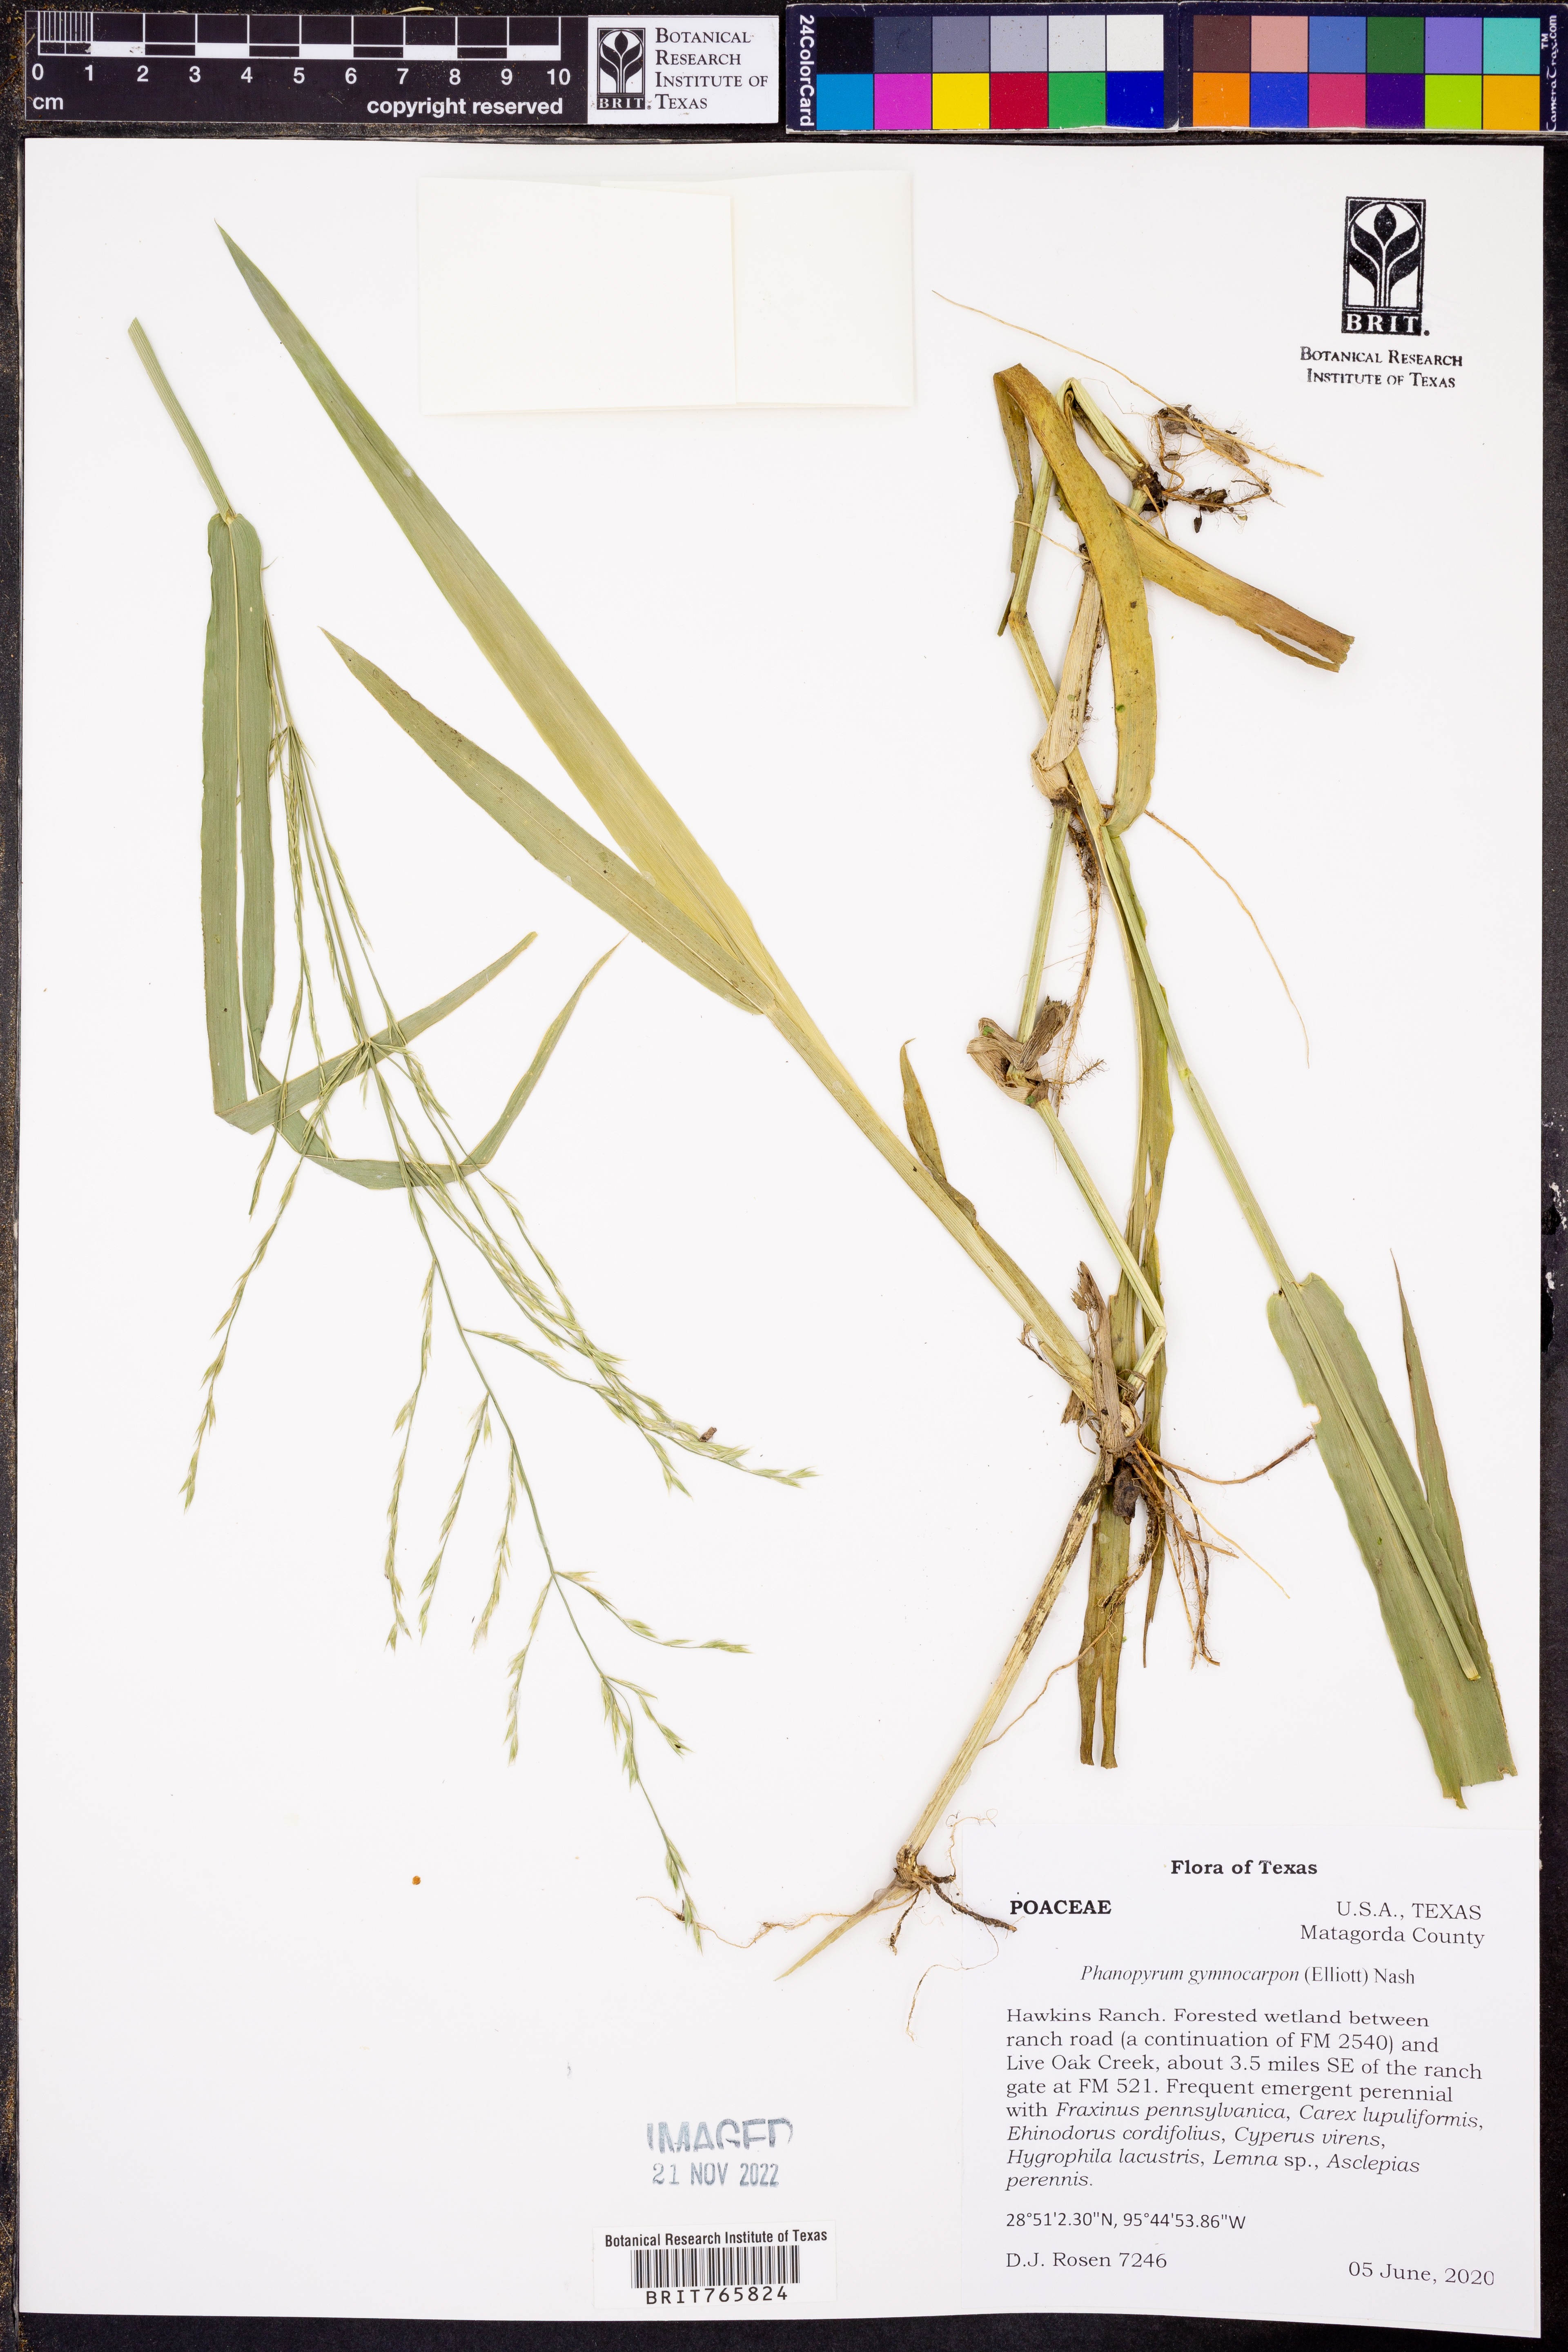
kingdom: Plantae
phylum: Tracheophyta
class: Liliopsida
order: Poales
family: Poaceae
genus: Panicum
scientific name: Panicum gymnocarpon
